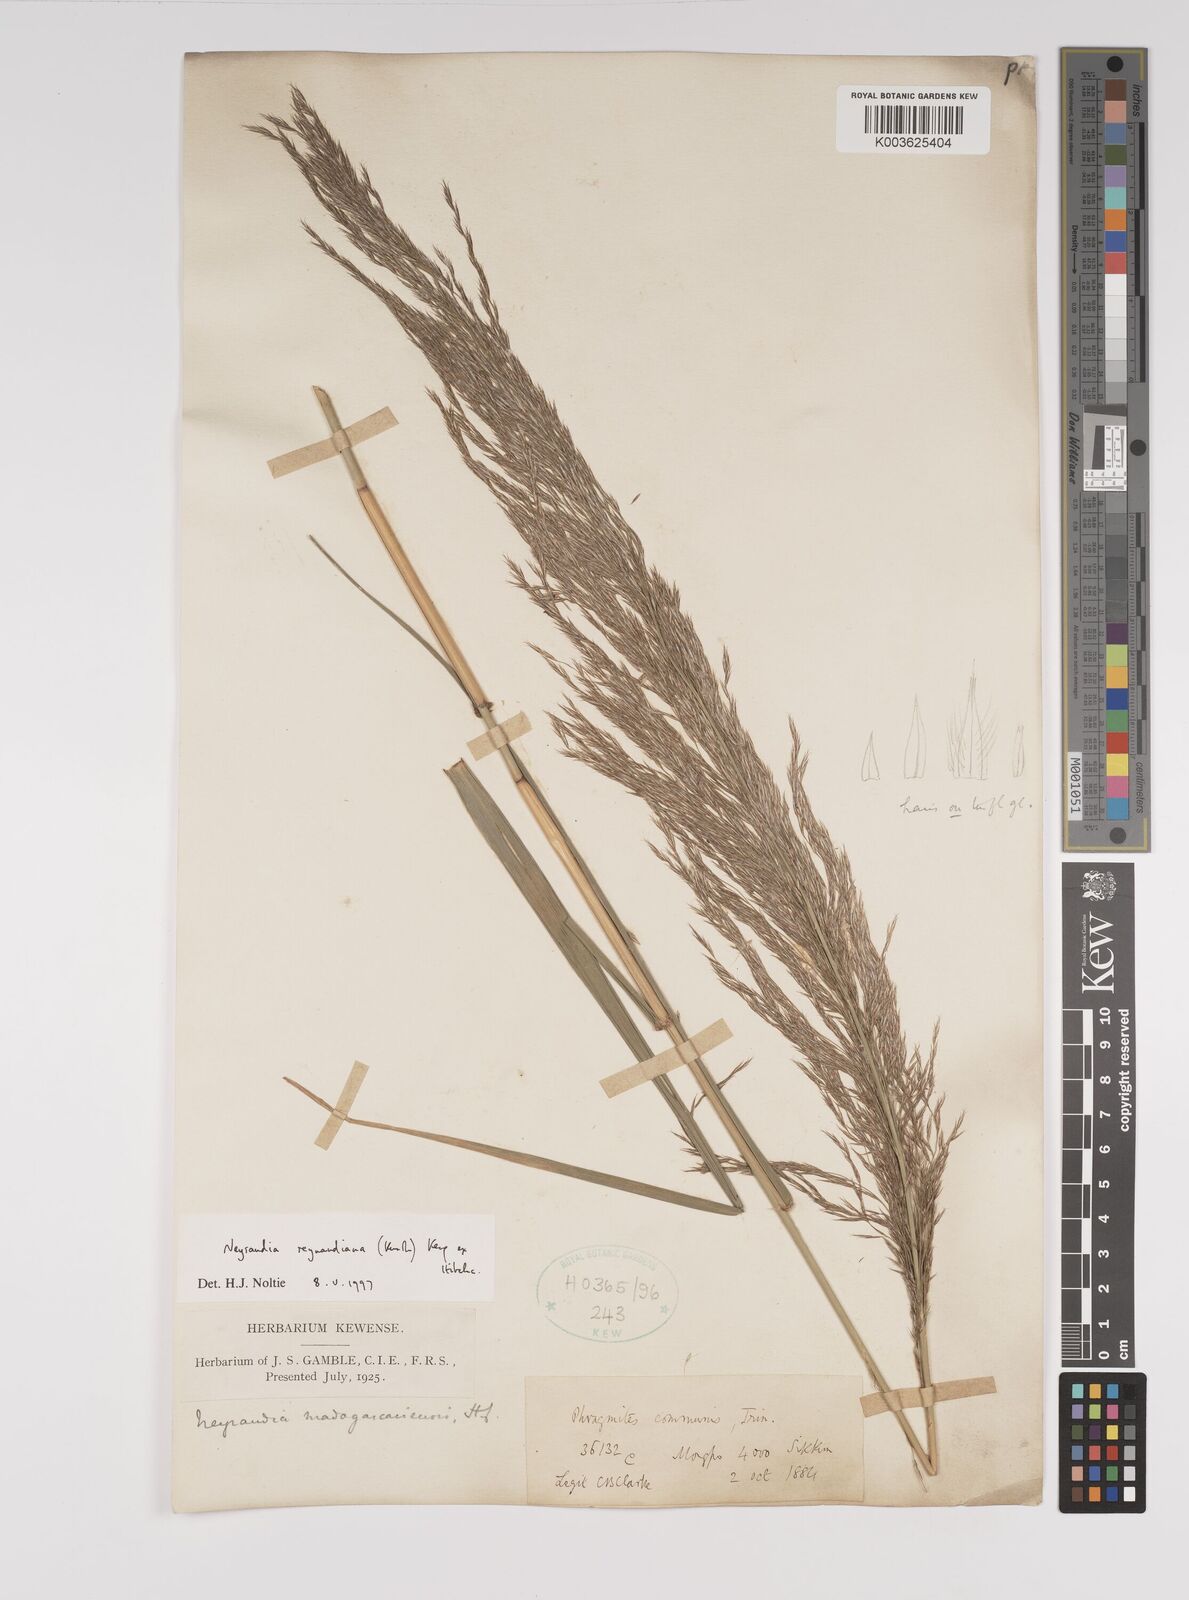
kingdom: Plantae
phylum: Tracheophyta
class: Liliopsida
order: Poales
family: Poaceae
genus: Neyraudia
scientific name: Neyraudia reynaudiana
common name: Silkreed
